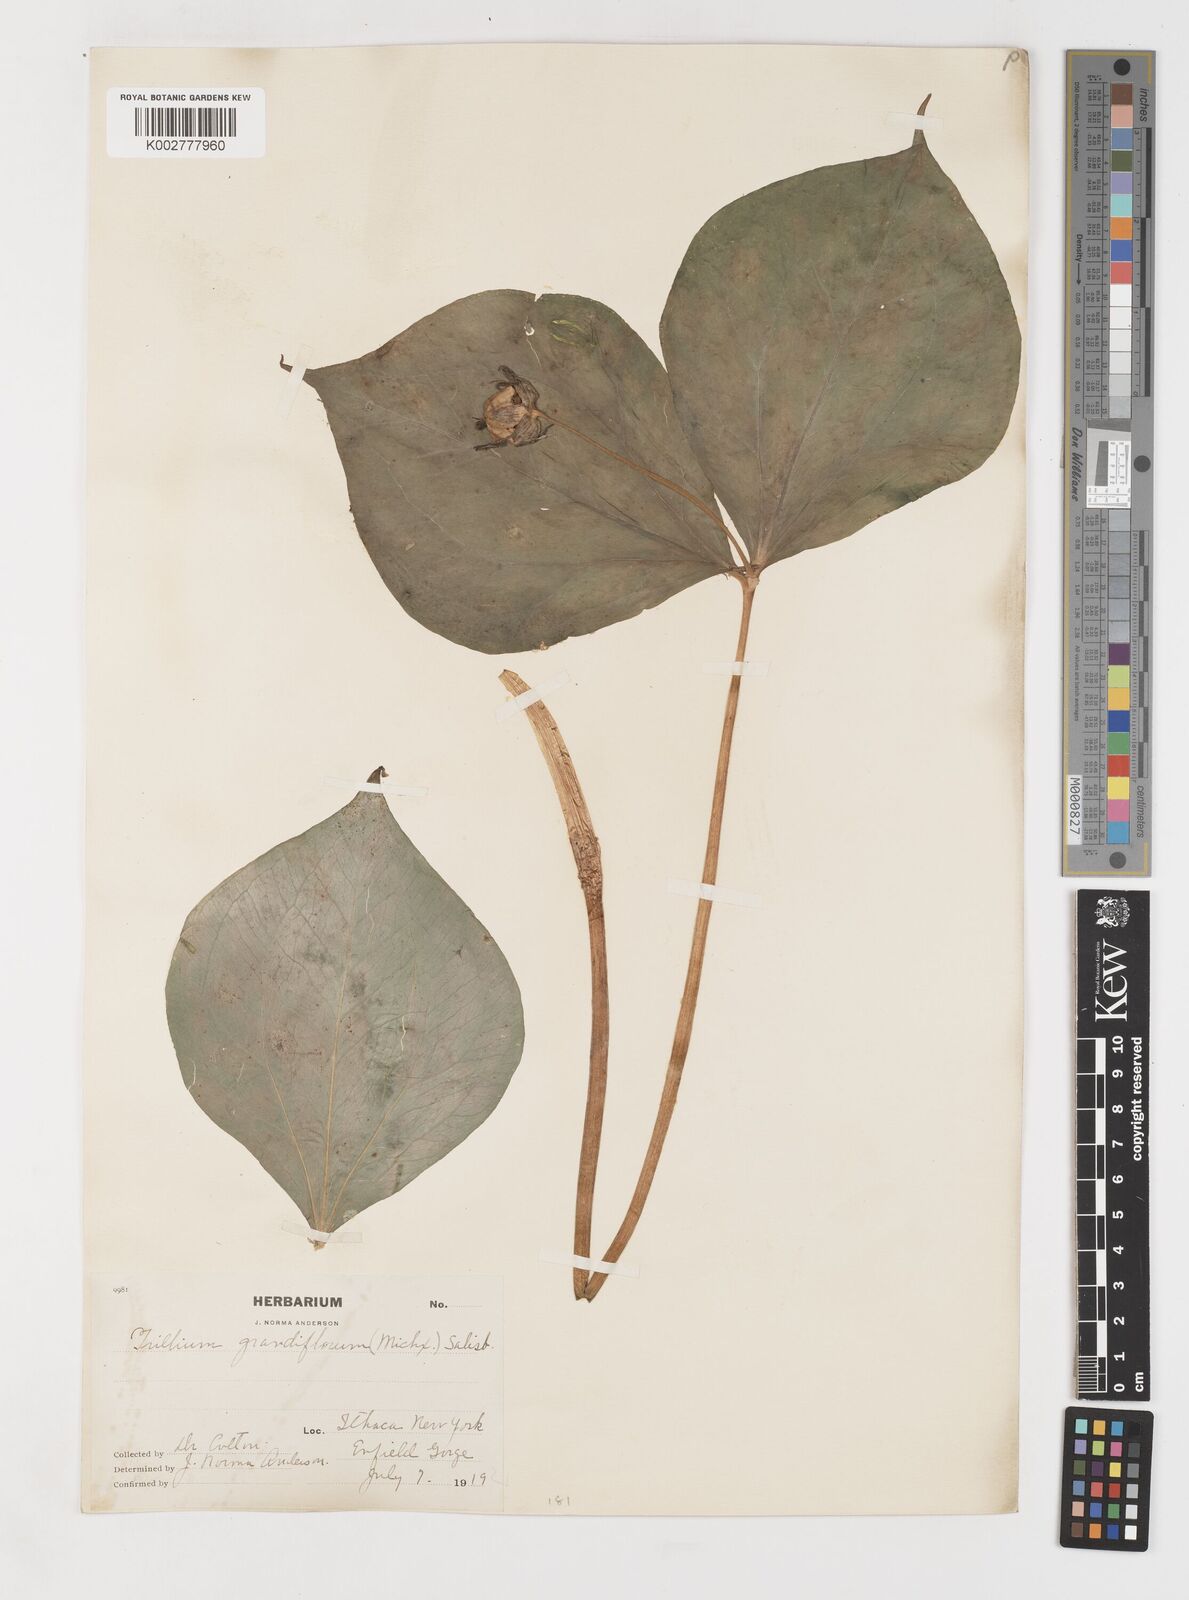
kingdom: Plantae
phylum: Tracheophyta
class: Liliopsida
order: Liliales
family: Melanthiaceae
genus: Trillium
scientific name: Trillium ovatum
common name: Pacific trillium
